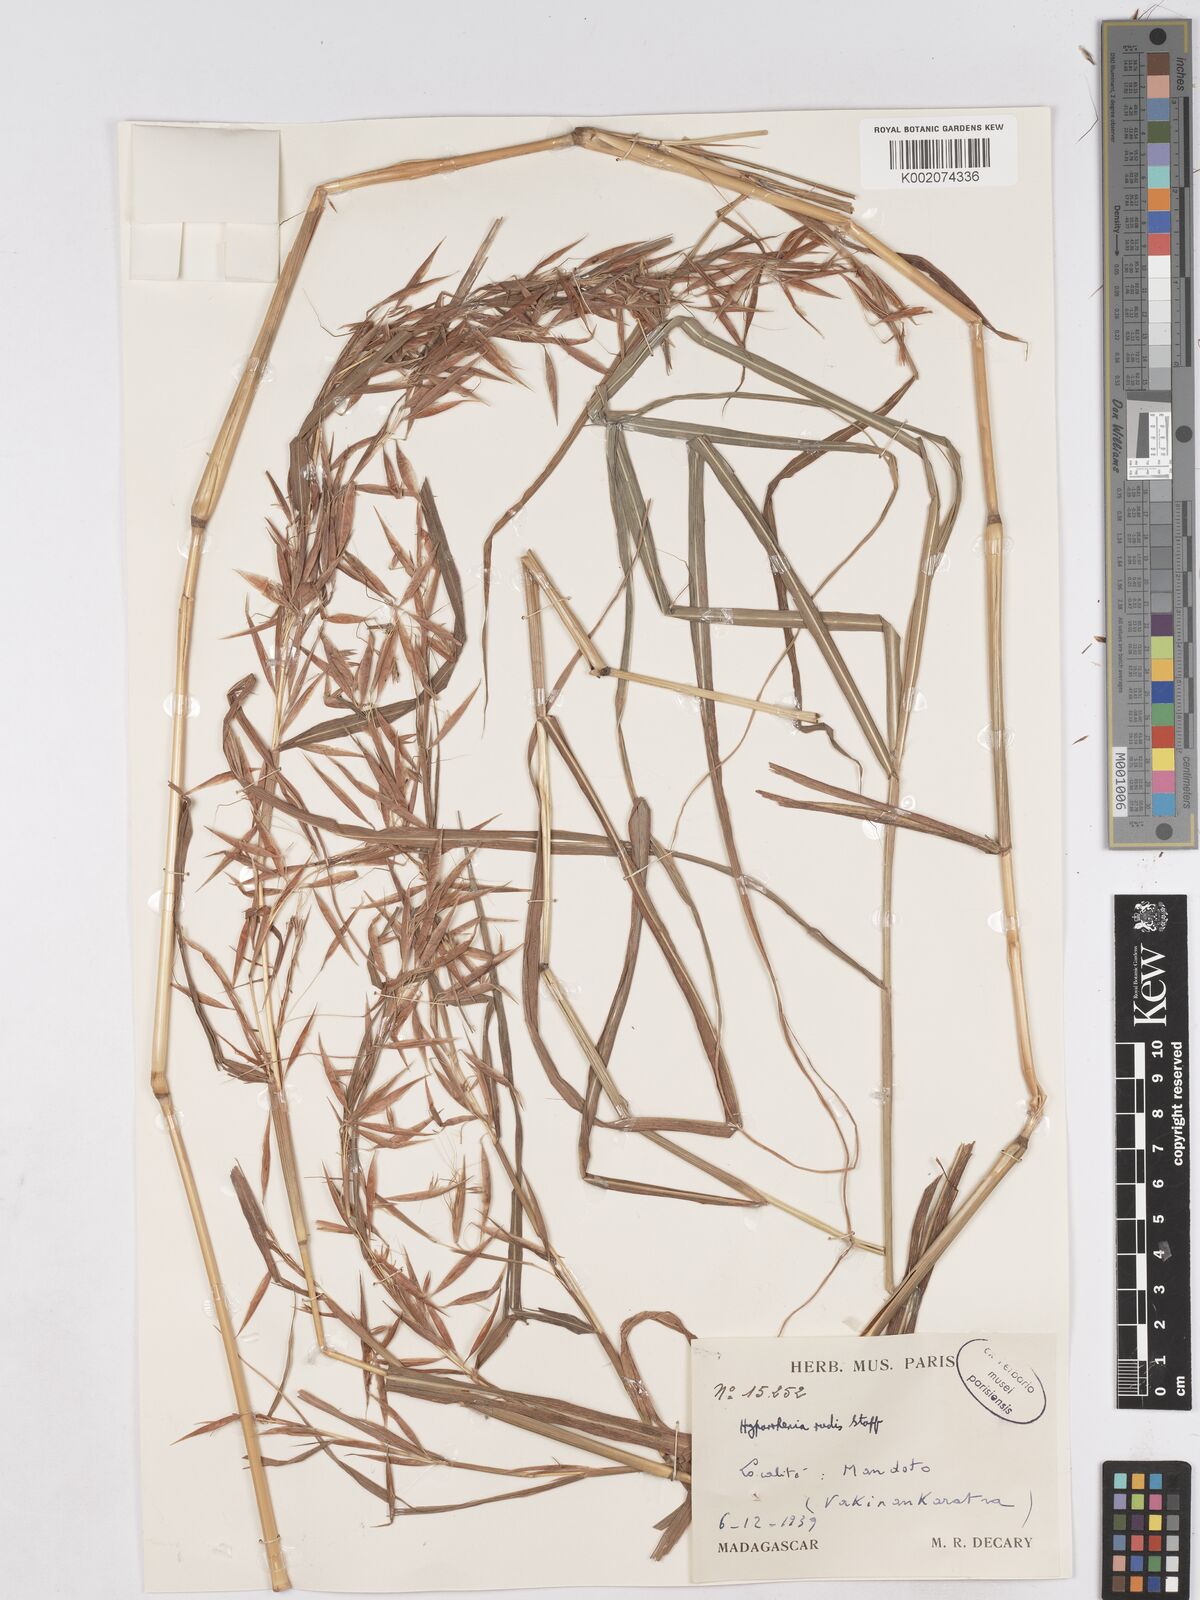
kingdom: Plantae
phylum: Tracheophyta
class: Liliopsida
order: Poales
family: Poaceae
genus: Hyparrhenia
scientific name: Hyparrhenia rudis
